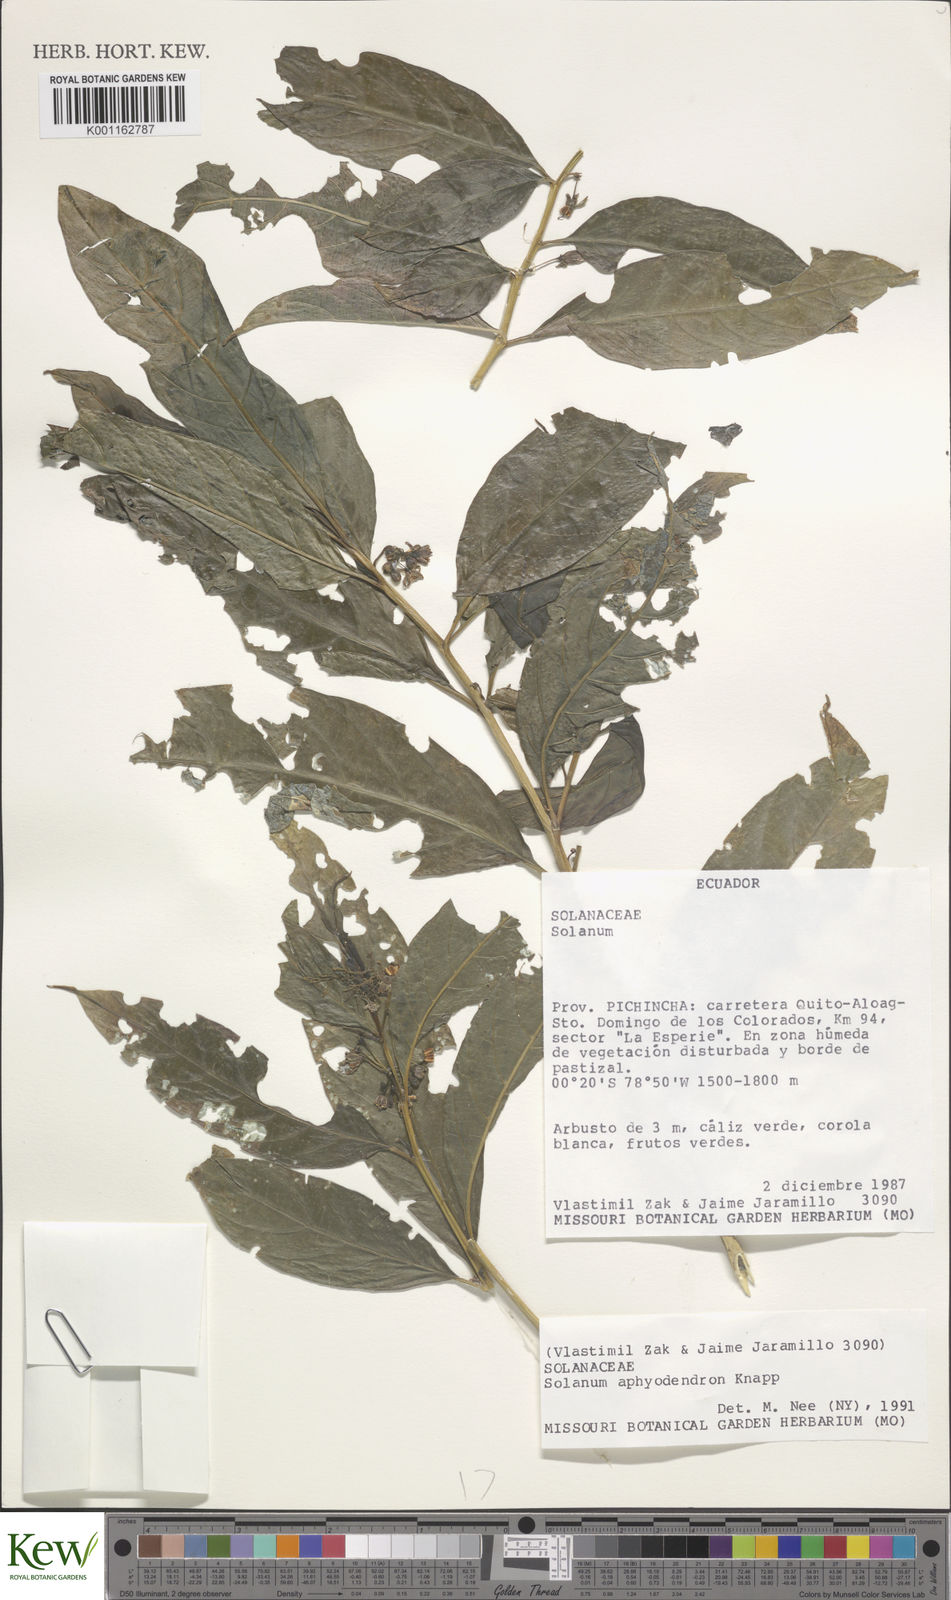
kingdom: Plantae
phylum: Tracheophyta
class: Magnoliopsida
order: Solanales
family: Solanaceae
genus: Solanum
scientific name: Solanum aphyodendron
